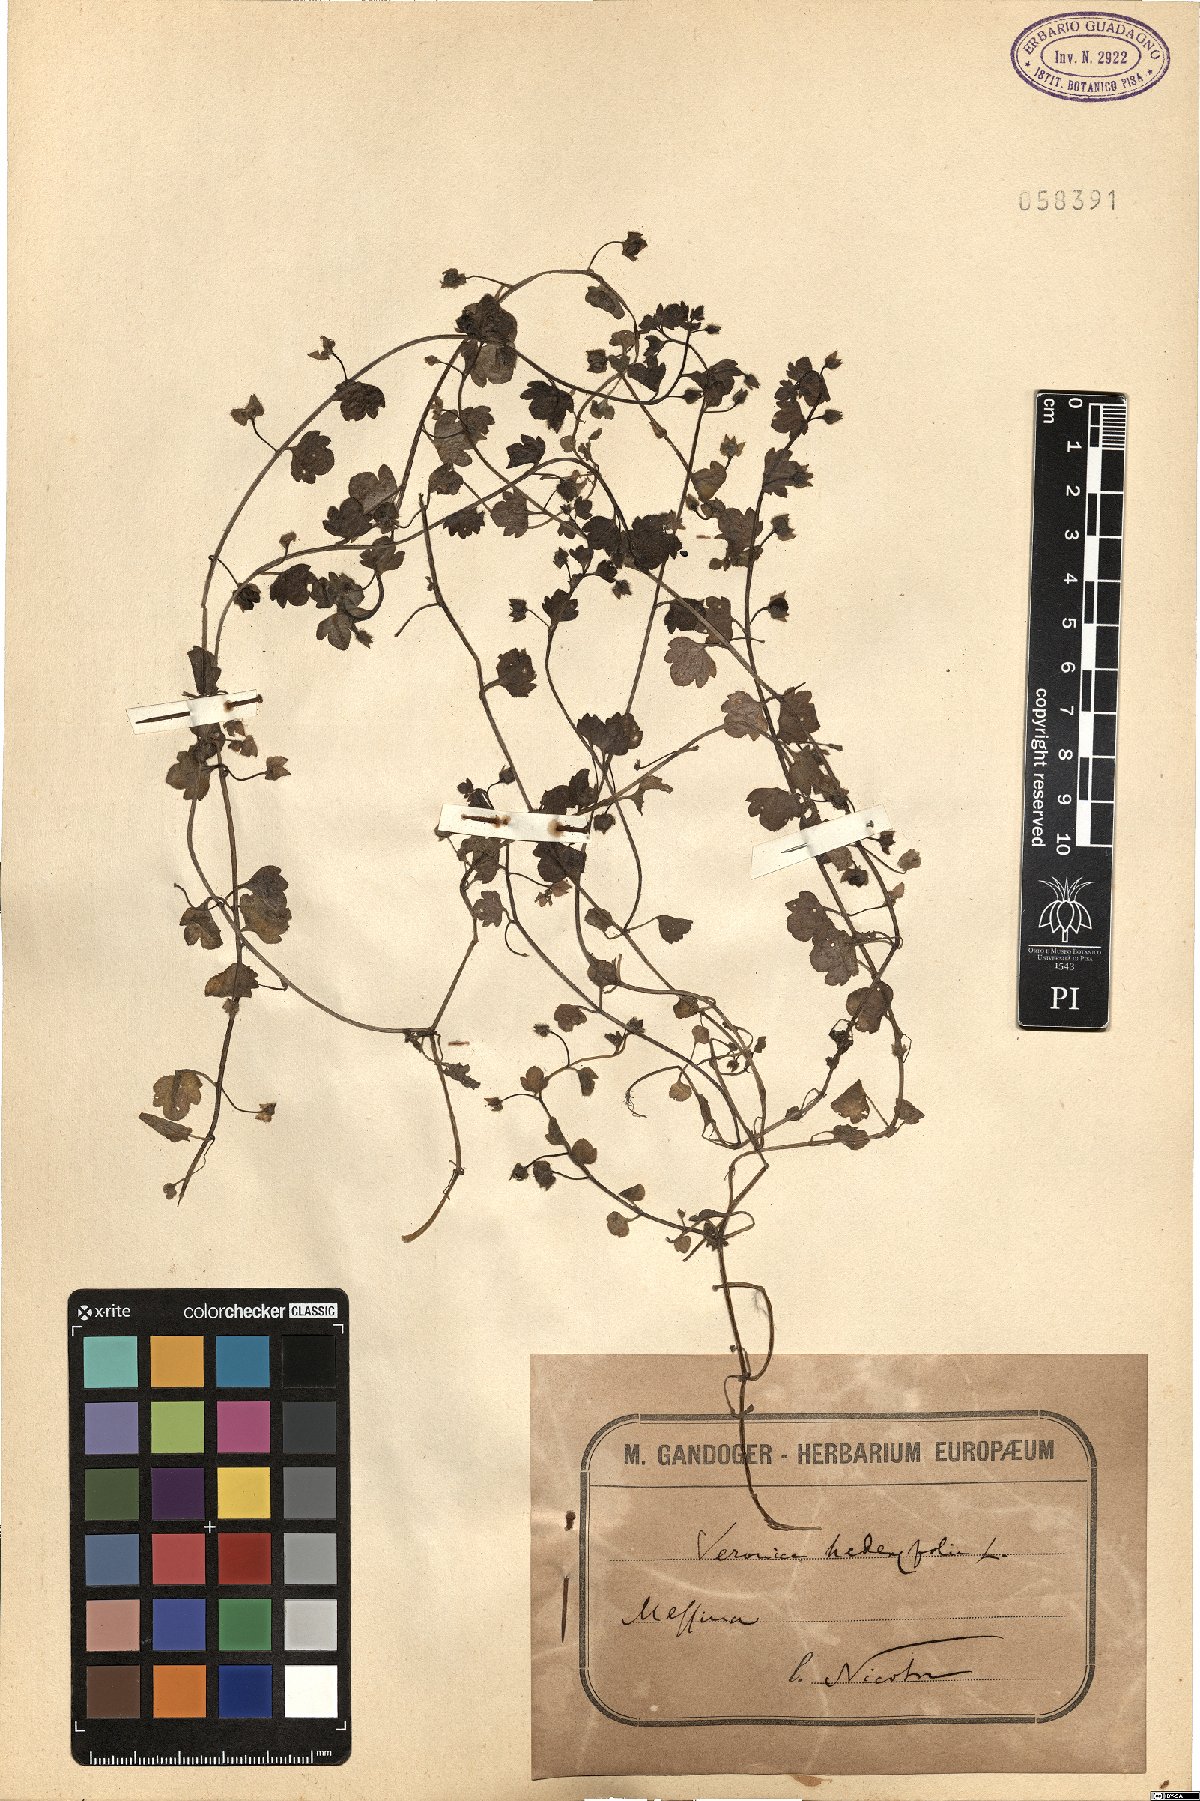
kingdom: Plantae
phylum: Tracheophyta
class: Magnoliopsida
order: Lamiales
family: Plantaginaceae
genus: Veronica
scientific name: Veronica hederifolia
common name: Ivy-leaved speedwell
